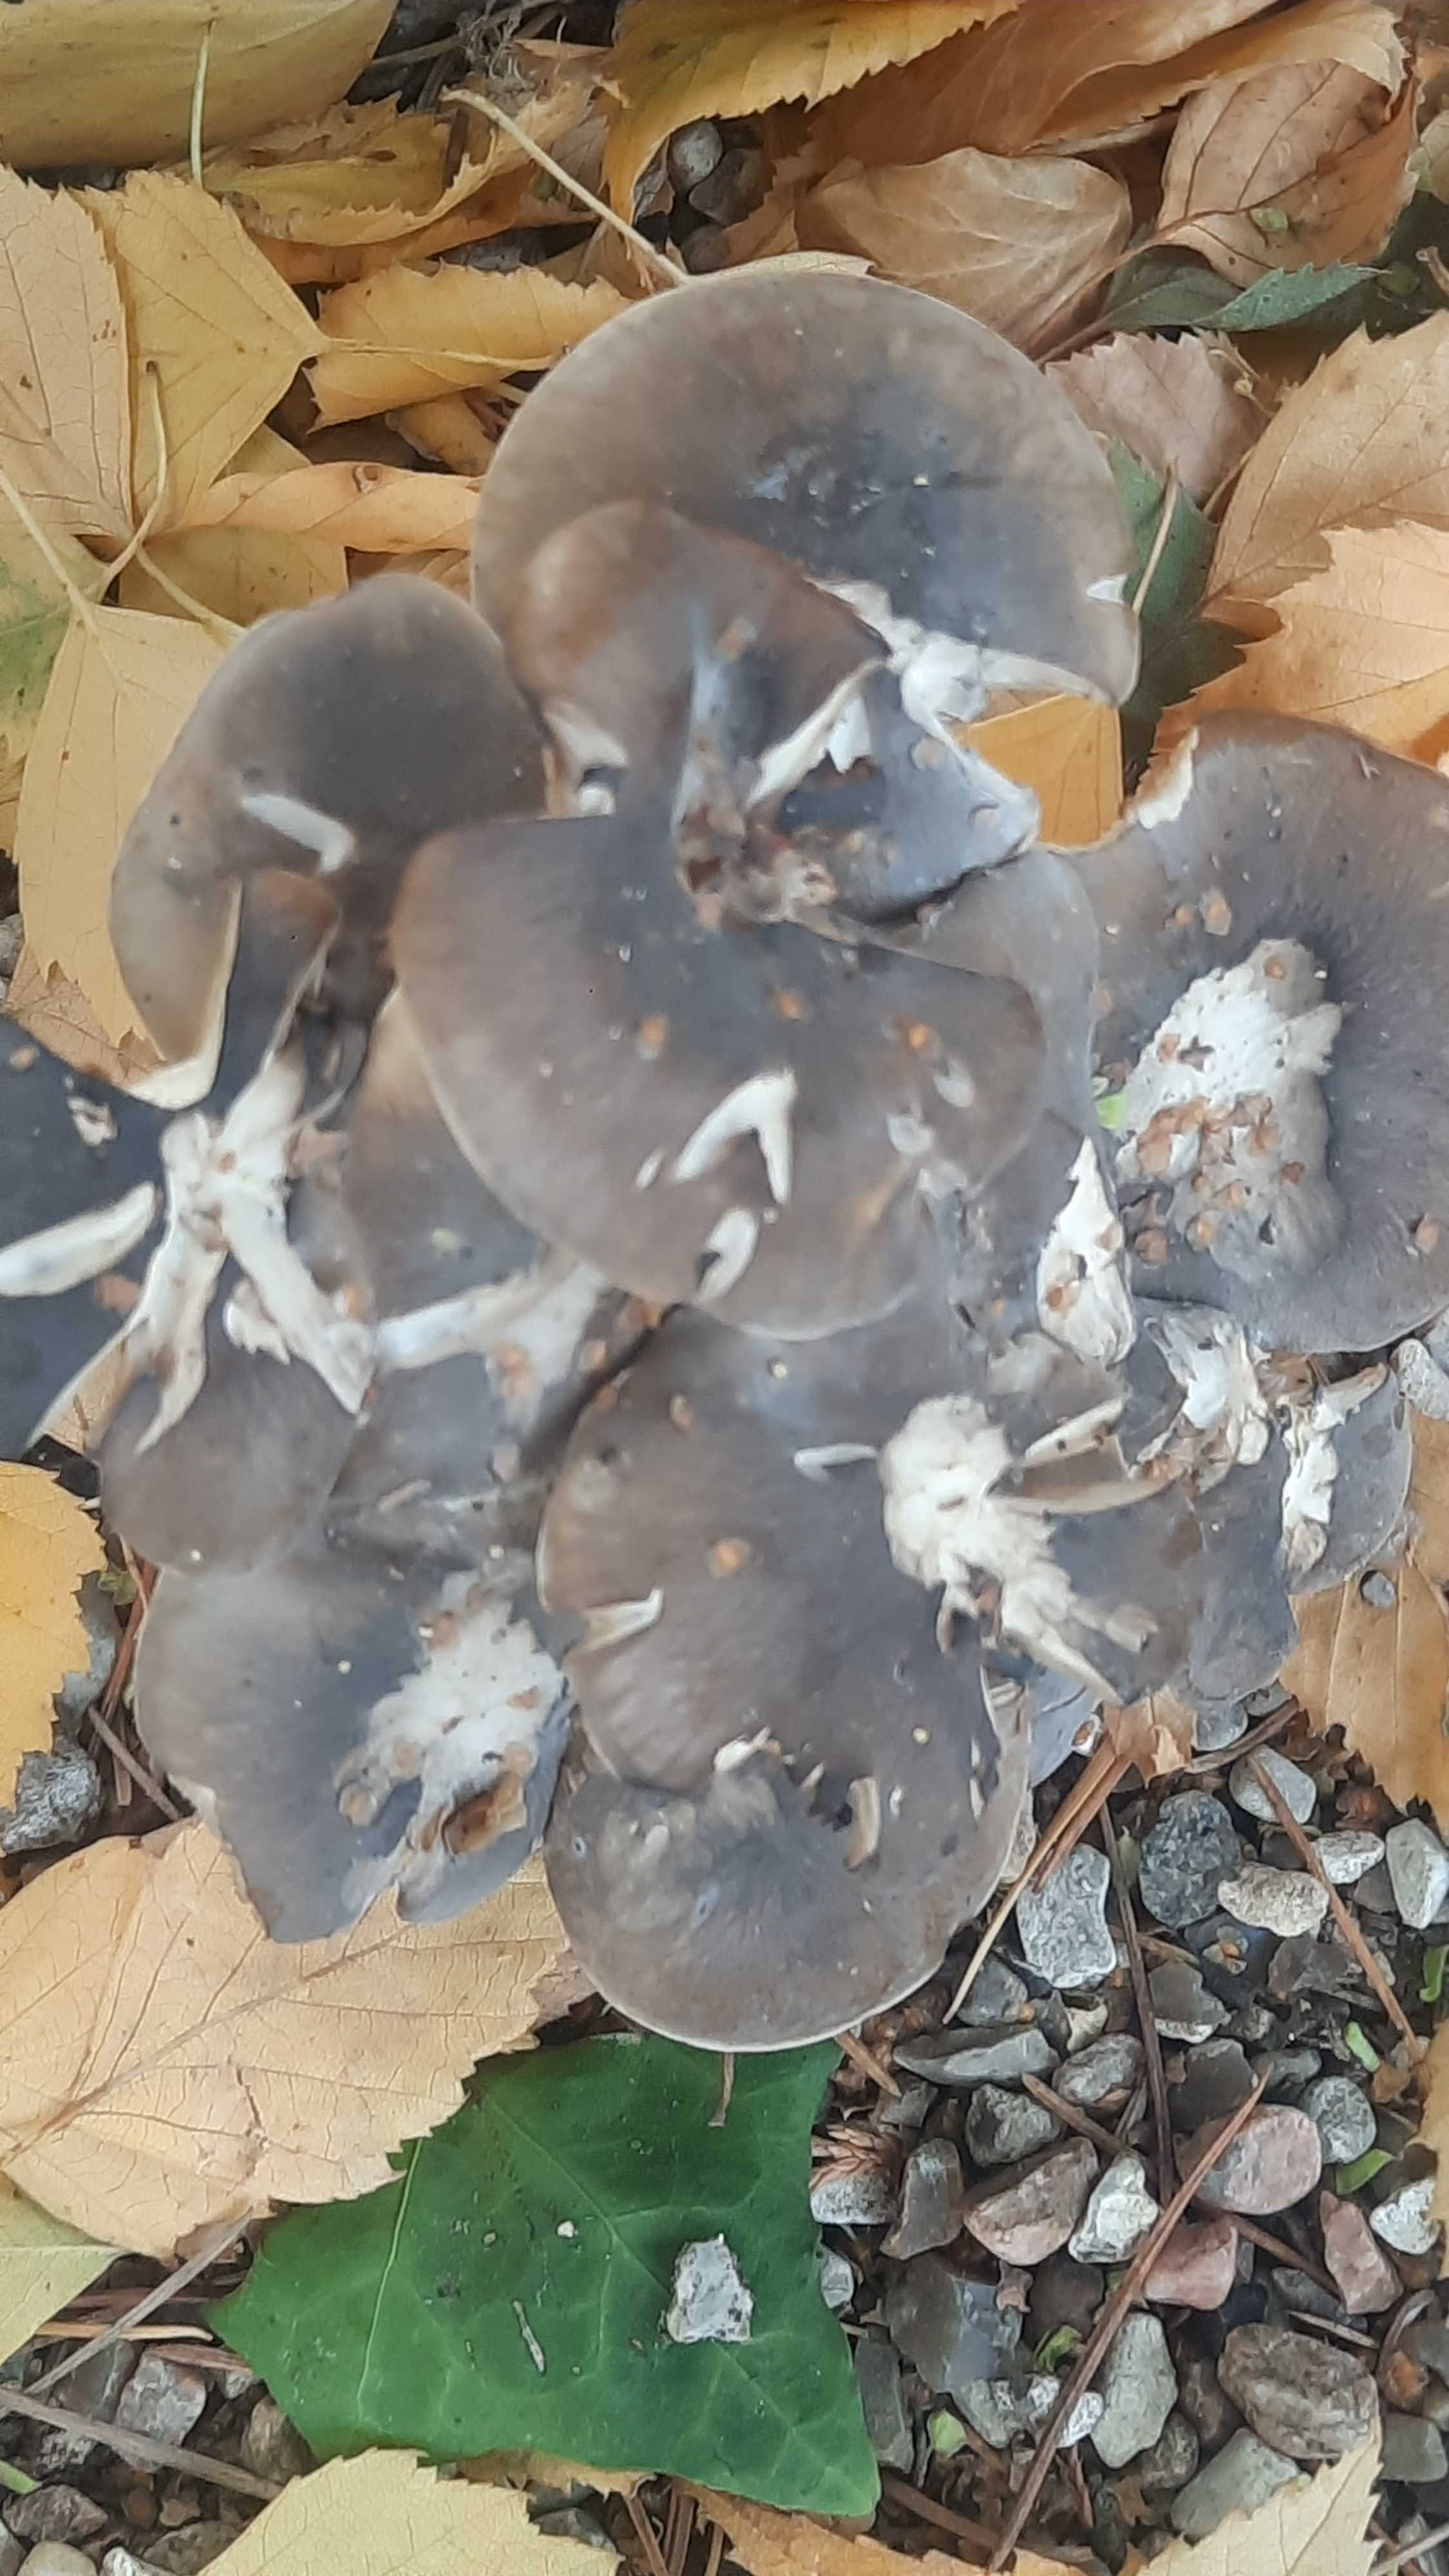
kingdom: Fungi
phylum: Basidiomycota
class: Agaricomycetes
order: Agaricales
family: Lyophyllaceae
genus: Lyophyllum
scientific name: Lyophyllum decastes
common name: røggrå gråblad
